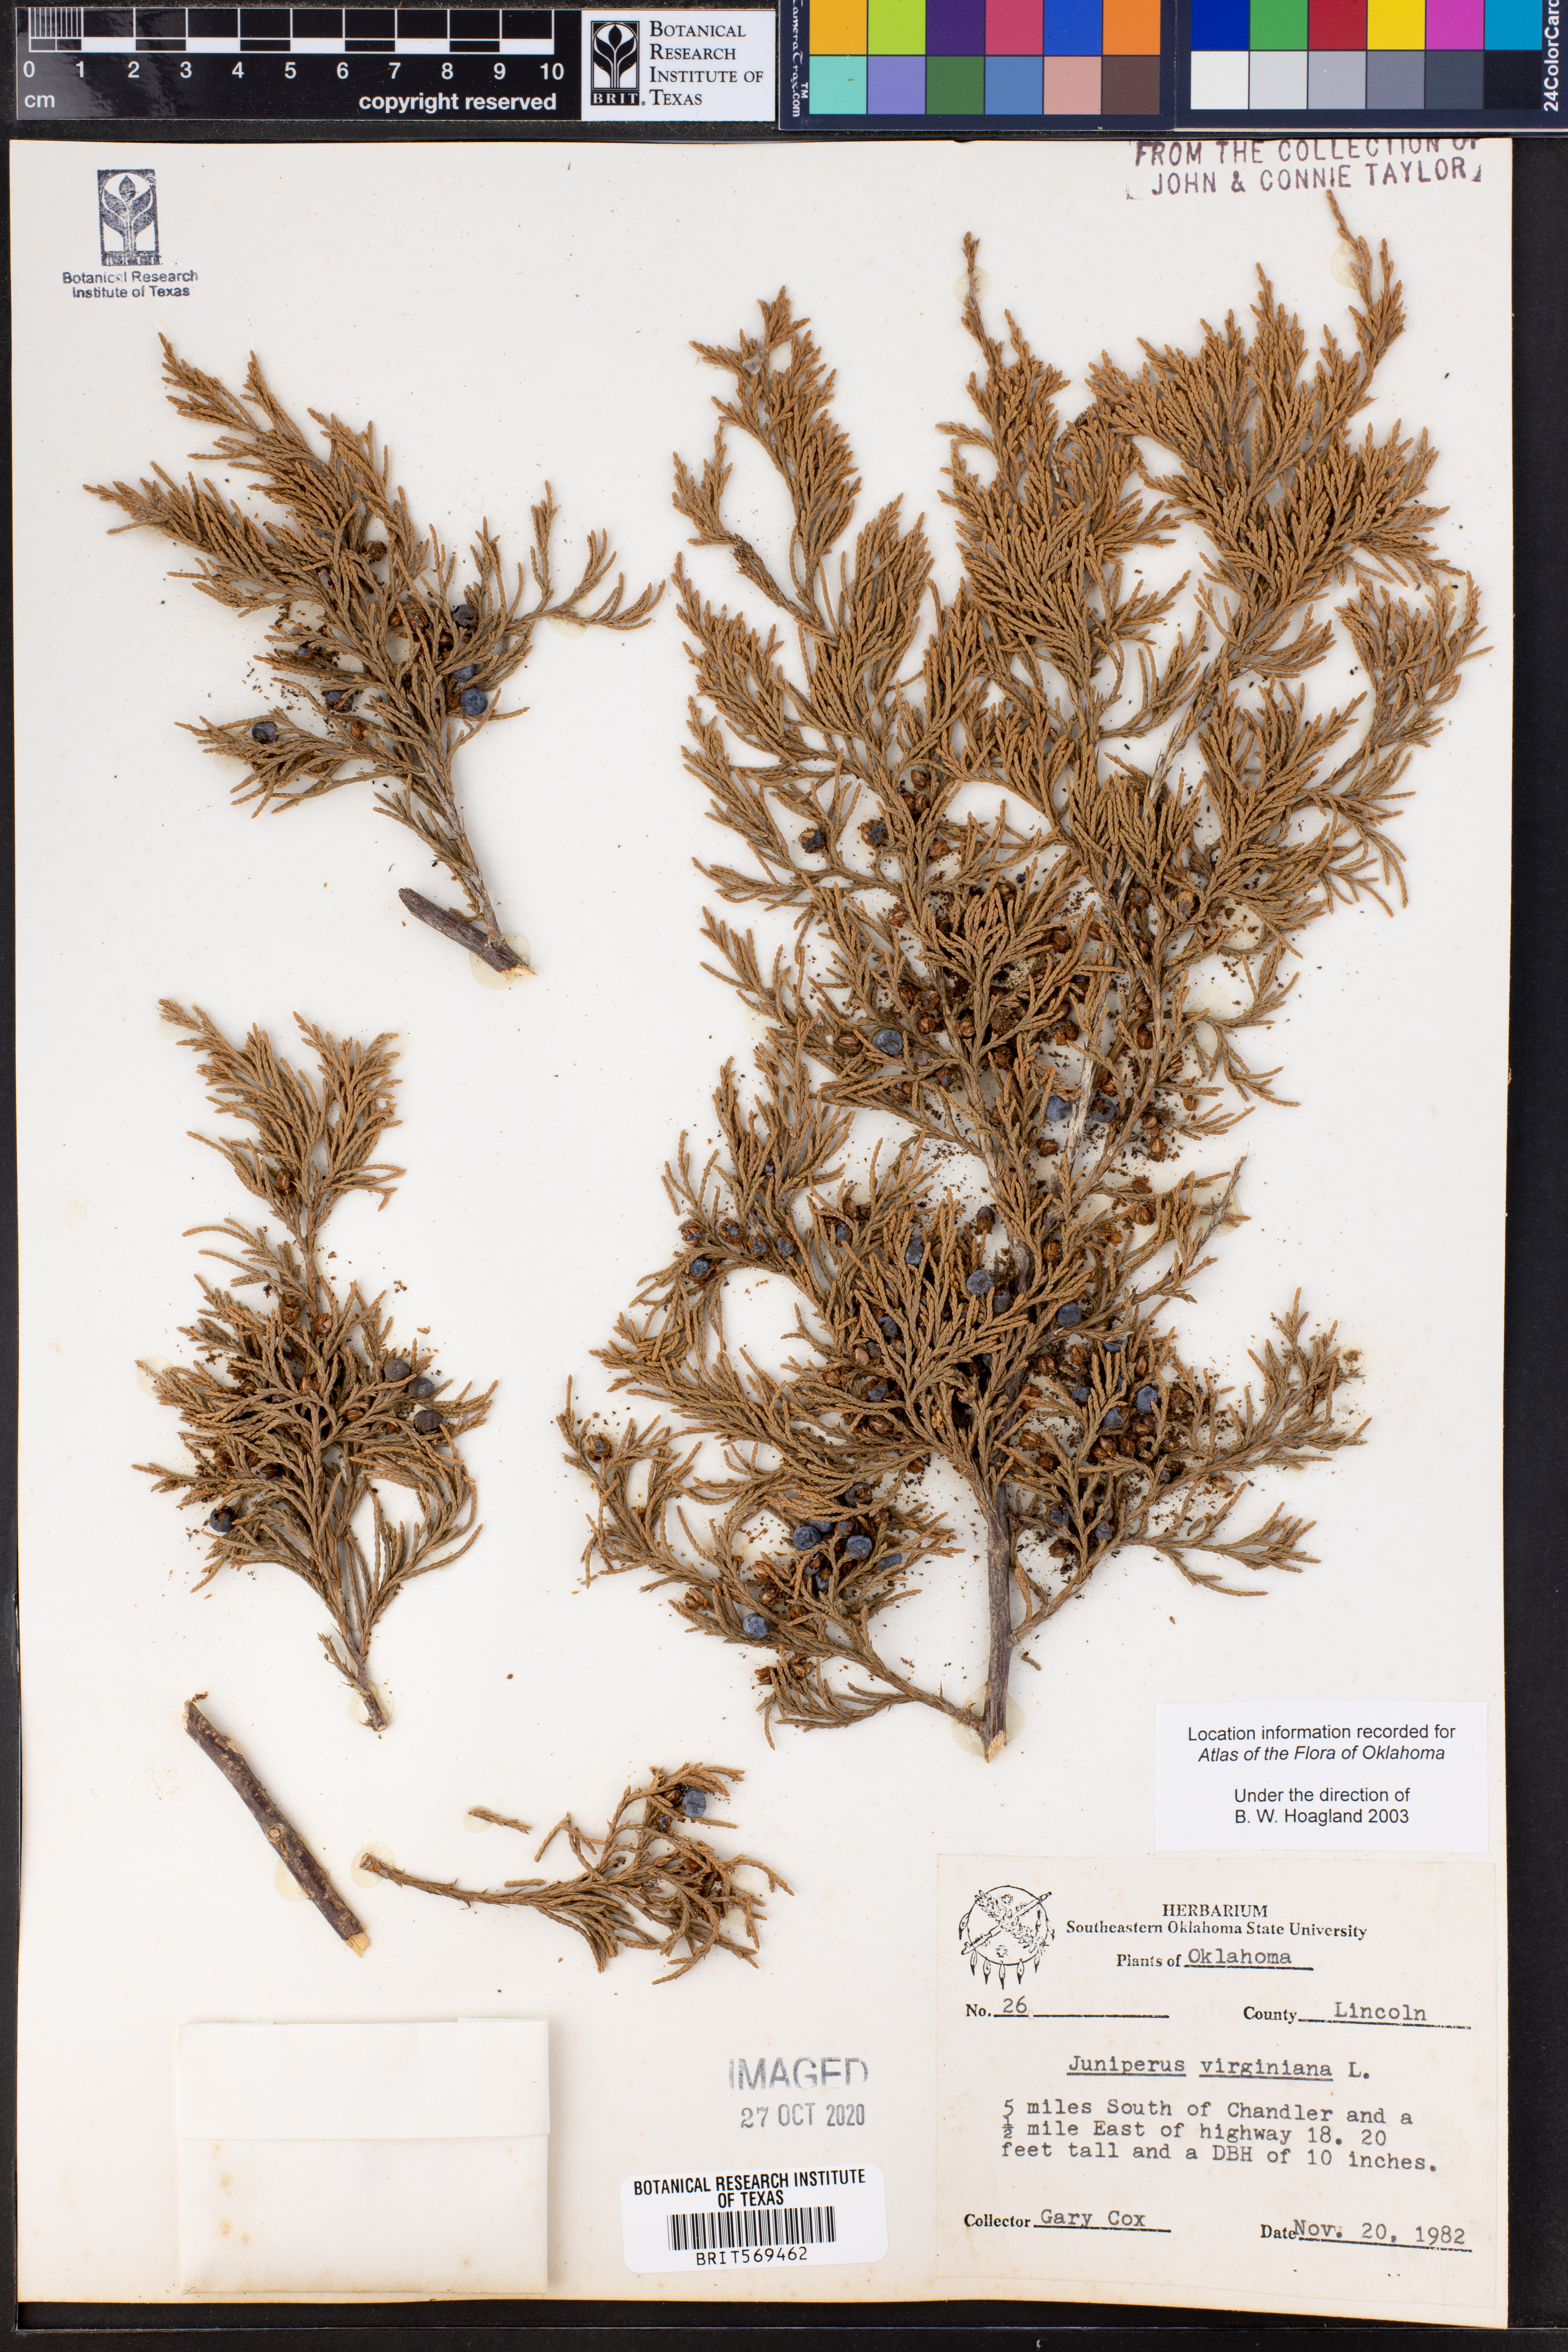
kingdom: Plantae
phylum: Tracheophyta
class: Pinopsida
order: Pinales
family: Cupressaceae
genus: Juniperus
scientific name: Juniperus virginiana
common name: Red juniper
